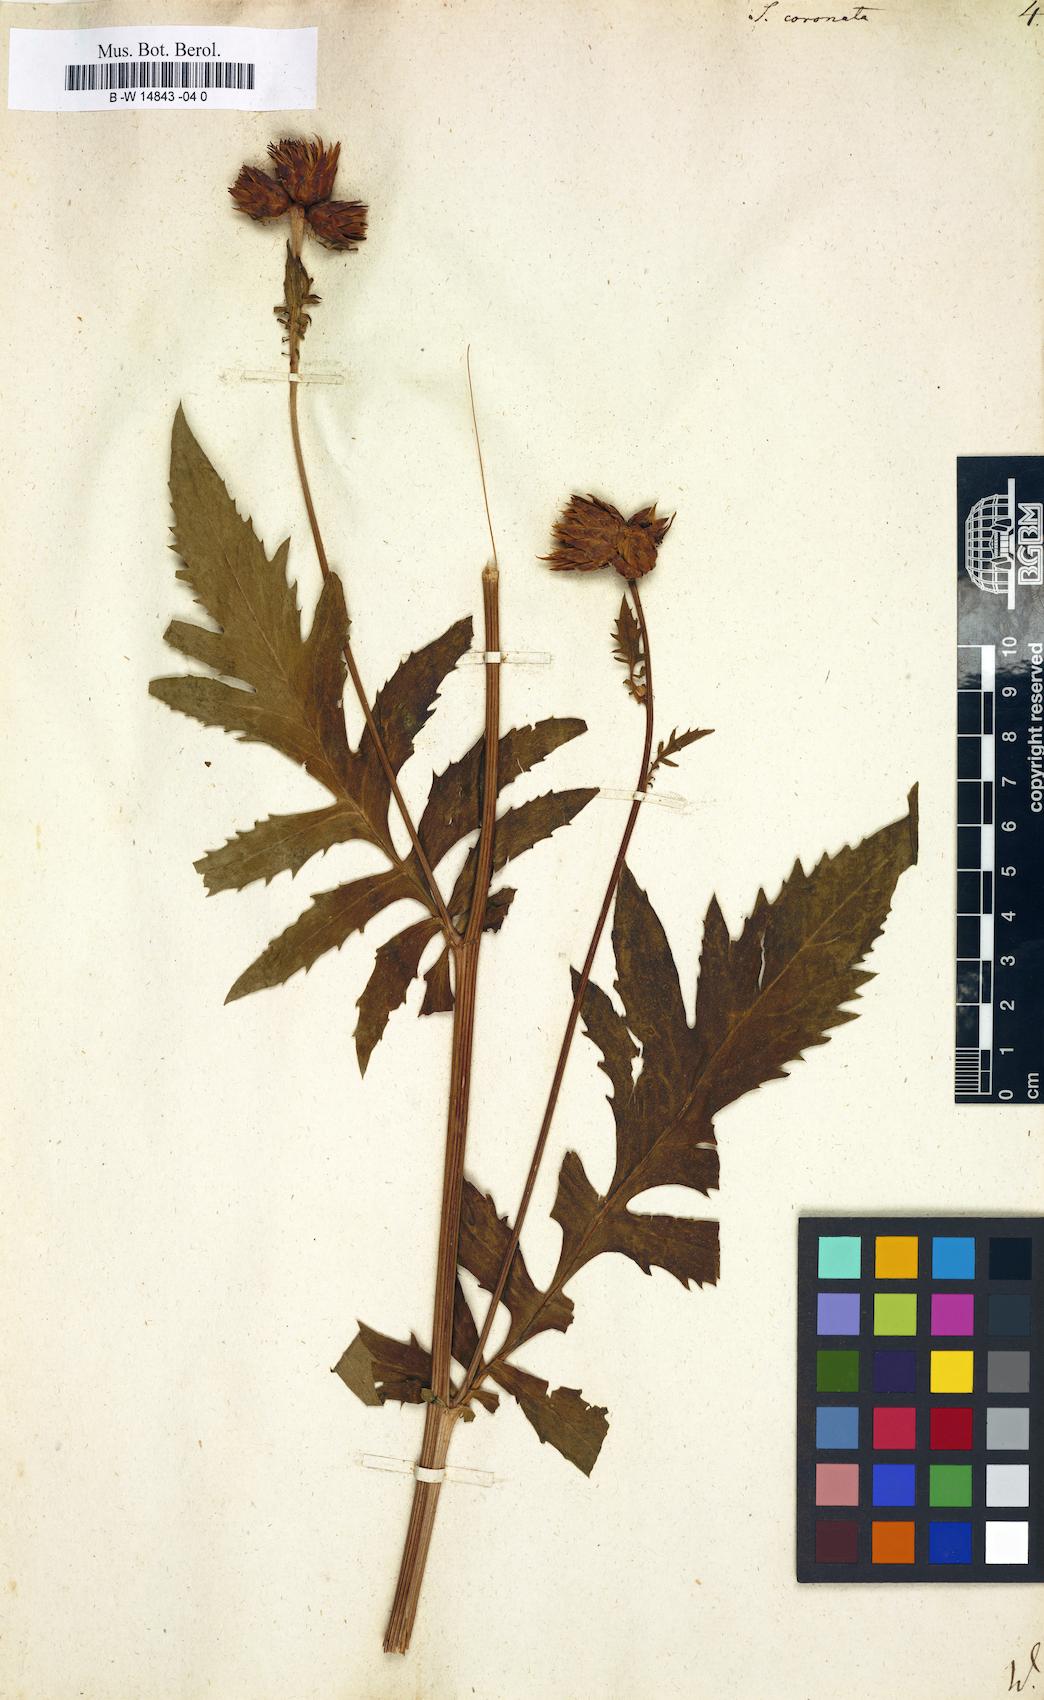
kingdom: Plantae
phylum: Tracheophyta
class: Magnoliopsida
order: Asterales
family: Asteraceae
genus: Serratula
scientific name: Serratula coronata
